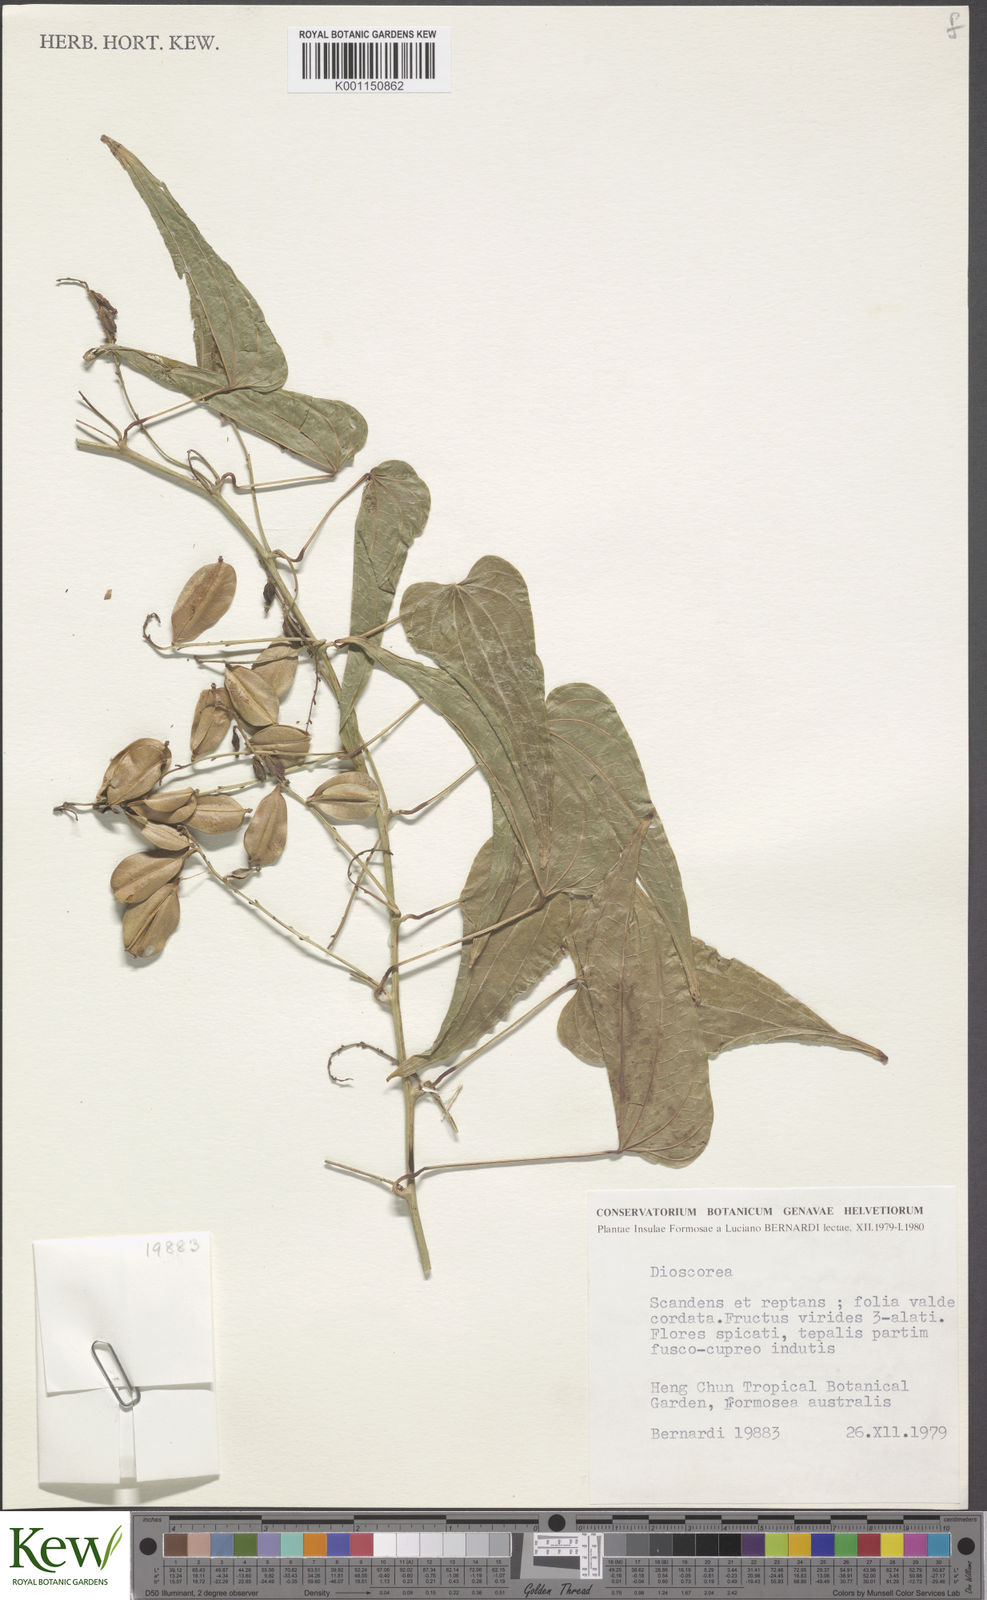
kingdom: Plantae
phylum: Tracheophyta
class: Liliopsida
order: Dioscoreales
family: Dioscoreaceae
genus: Dioscorea
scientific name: Dioscorea
